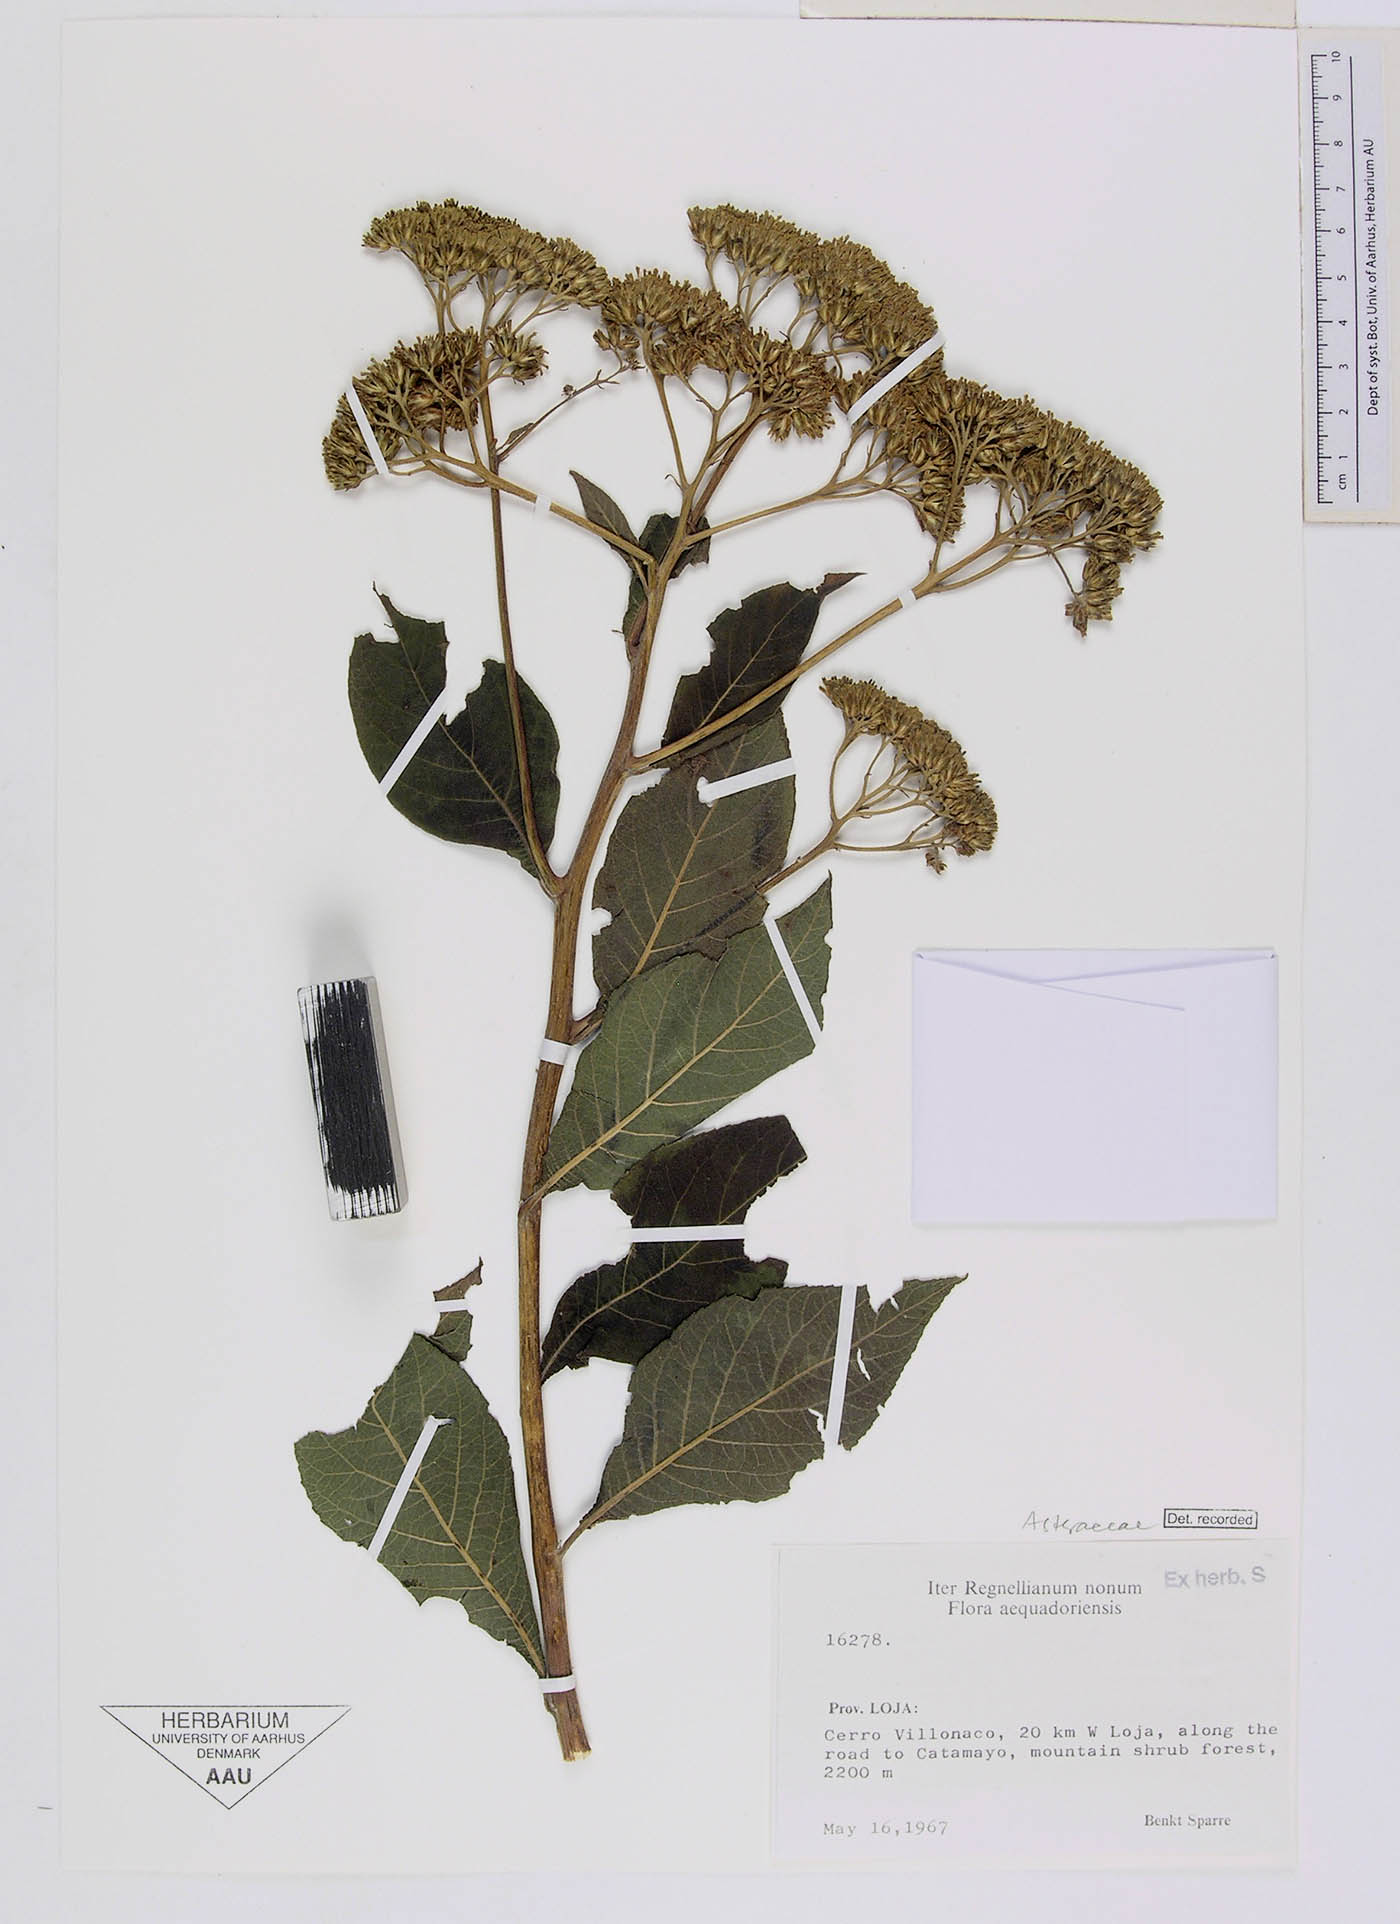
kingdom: Plantae
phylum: Tracheophyta
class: Magnoliopsida
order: Asterales
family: Asteraceae
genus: Verbesina
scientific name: Verbesina pentantha
